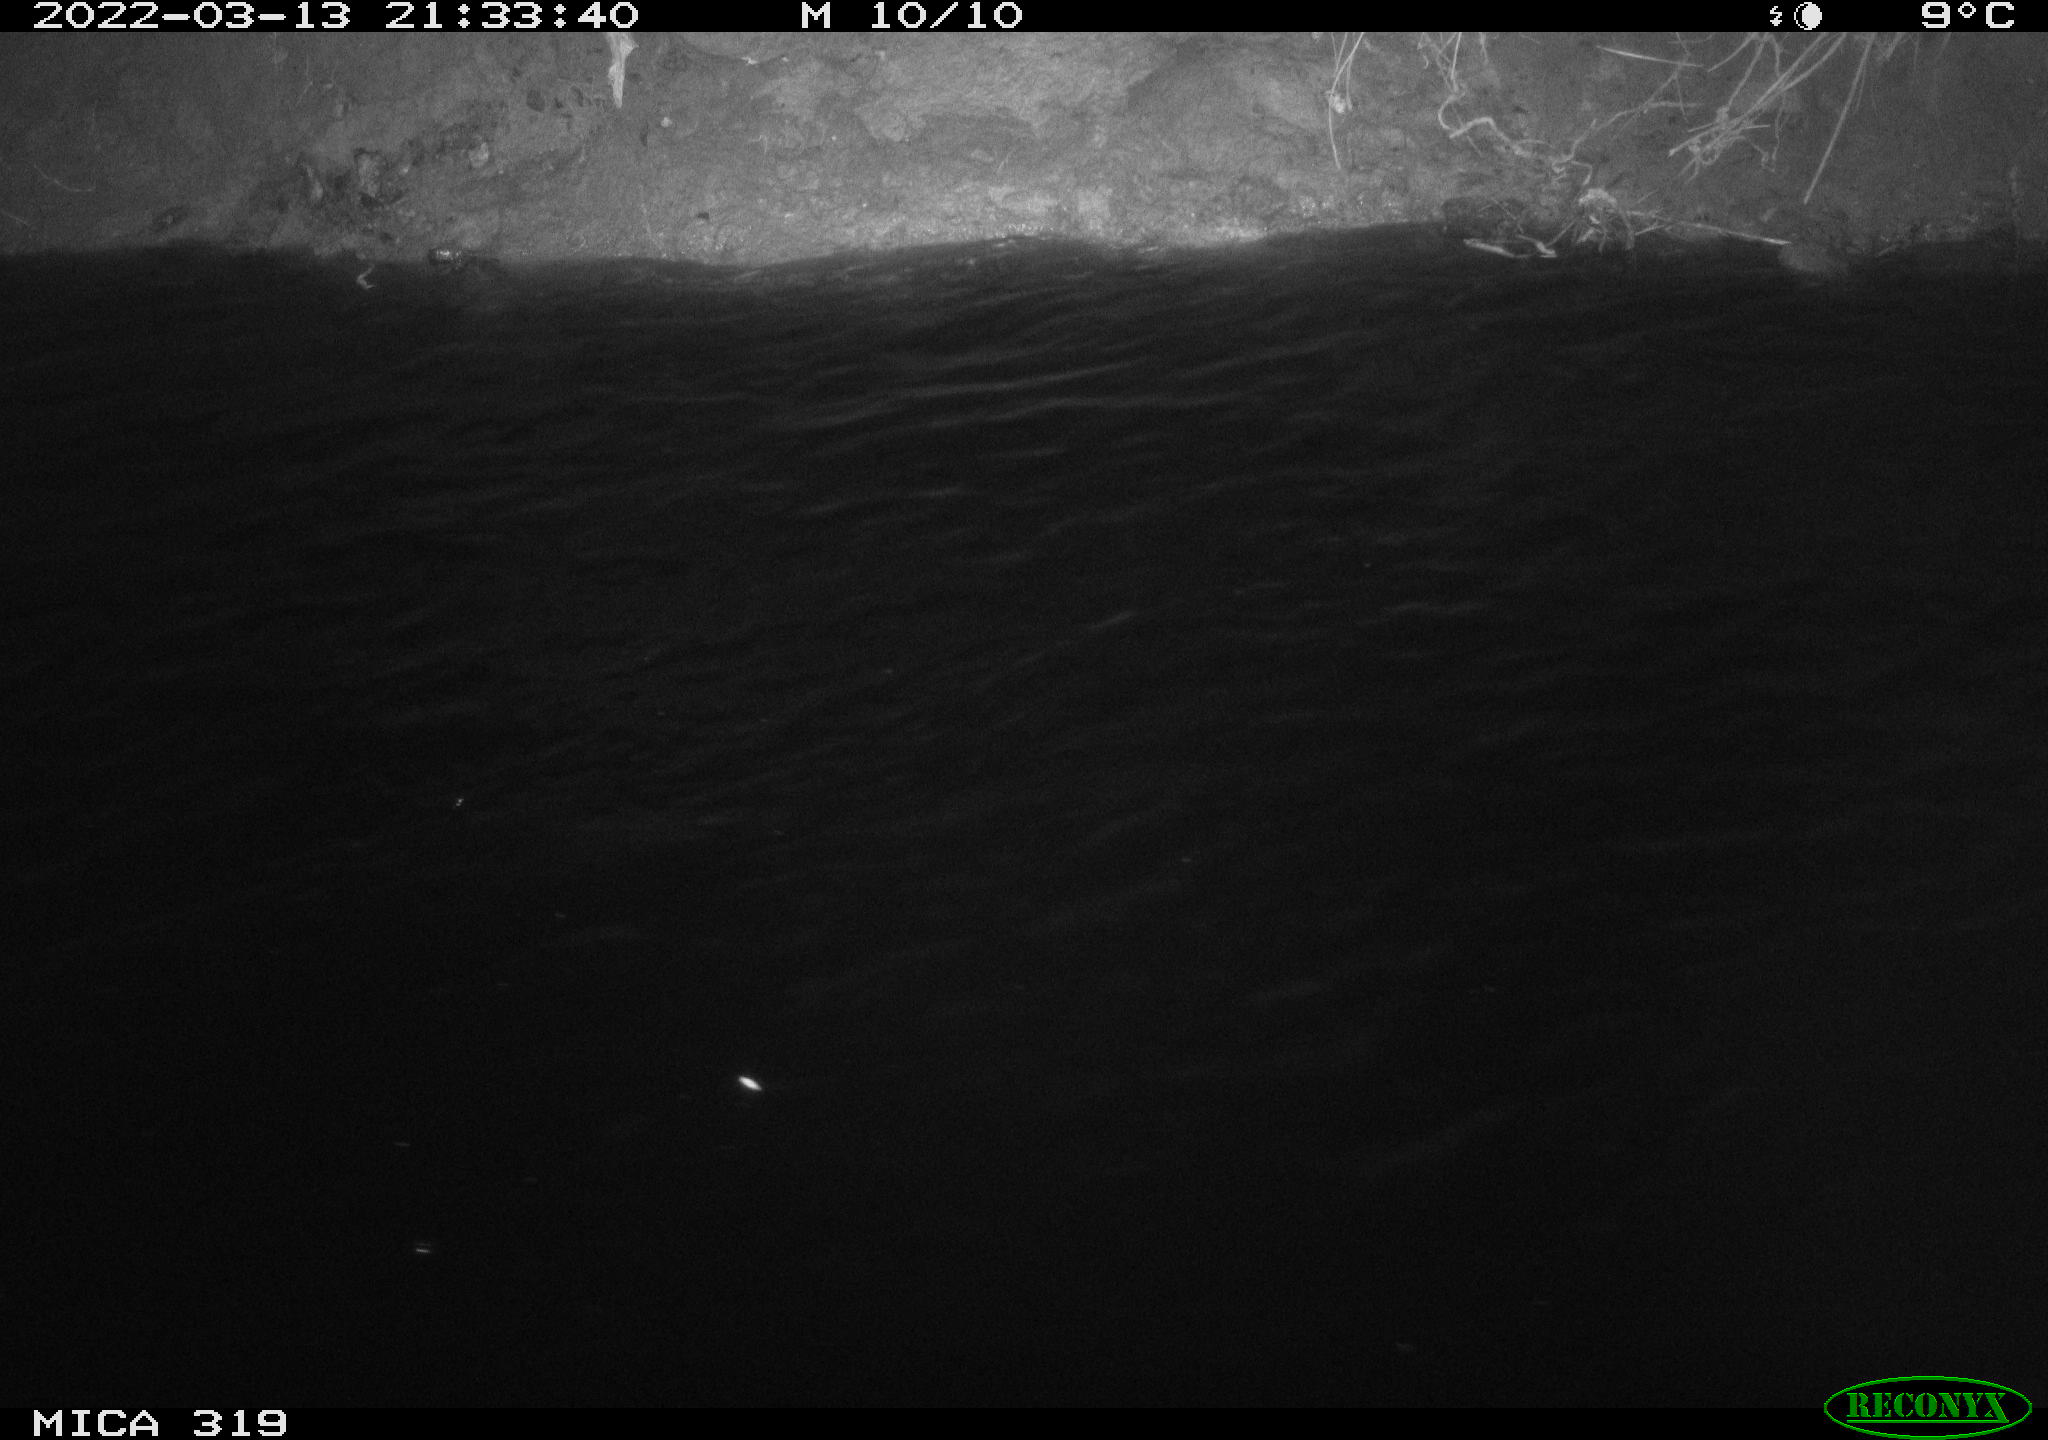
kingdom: Animalia
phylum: Chordata
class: Aves
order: Anseriformes
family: Anatidae
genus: Anas
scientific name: Anas platyrhynchos
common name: Mallard
